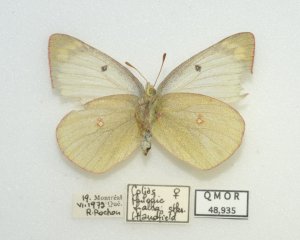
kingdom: Animalia
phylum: Arthropoda
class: Insecta
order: Lepidoptera
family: Pieridae
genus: Colias
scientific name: Colias philodice
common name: Clouded Sulphur
